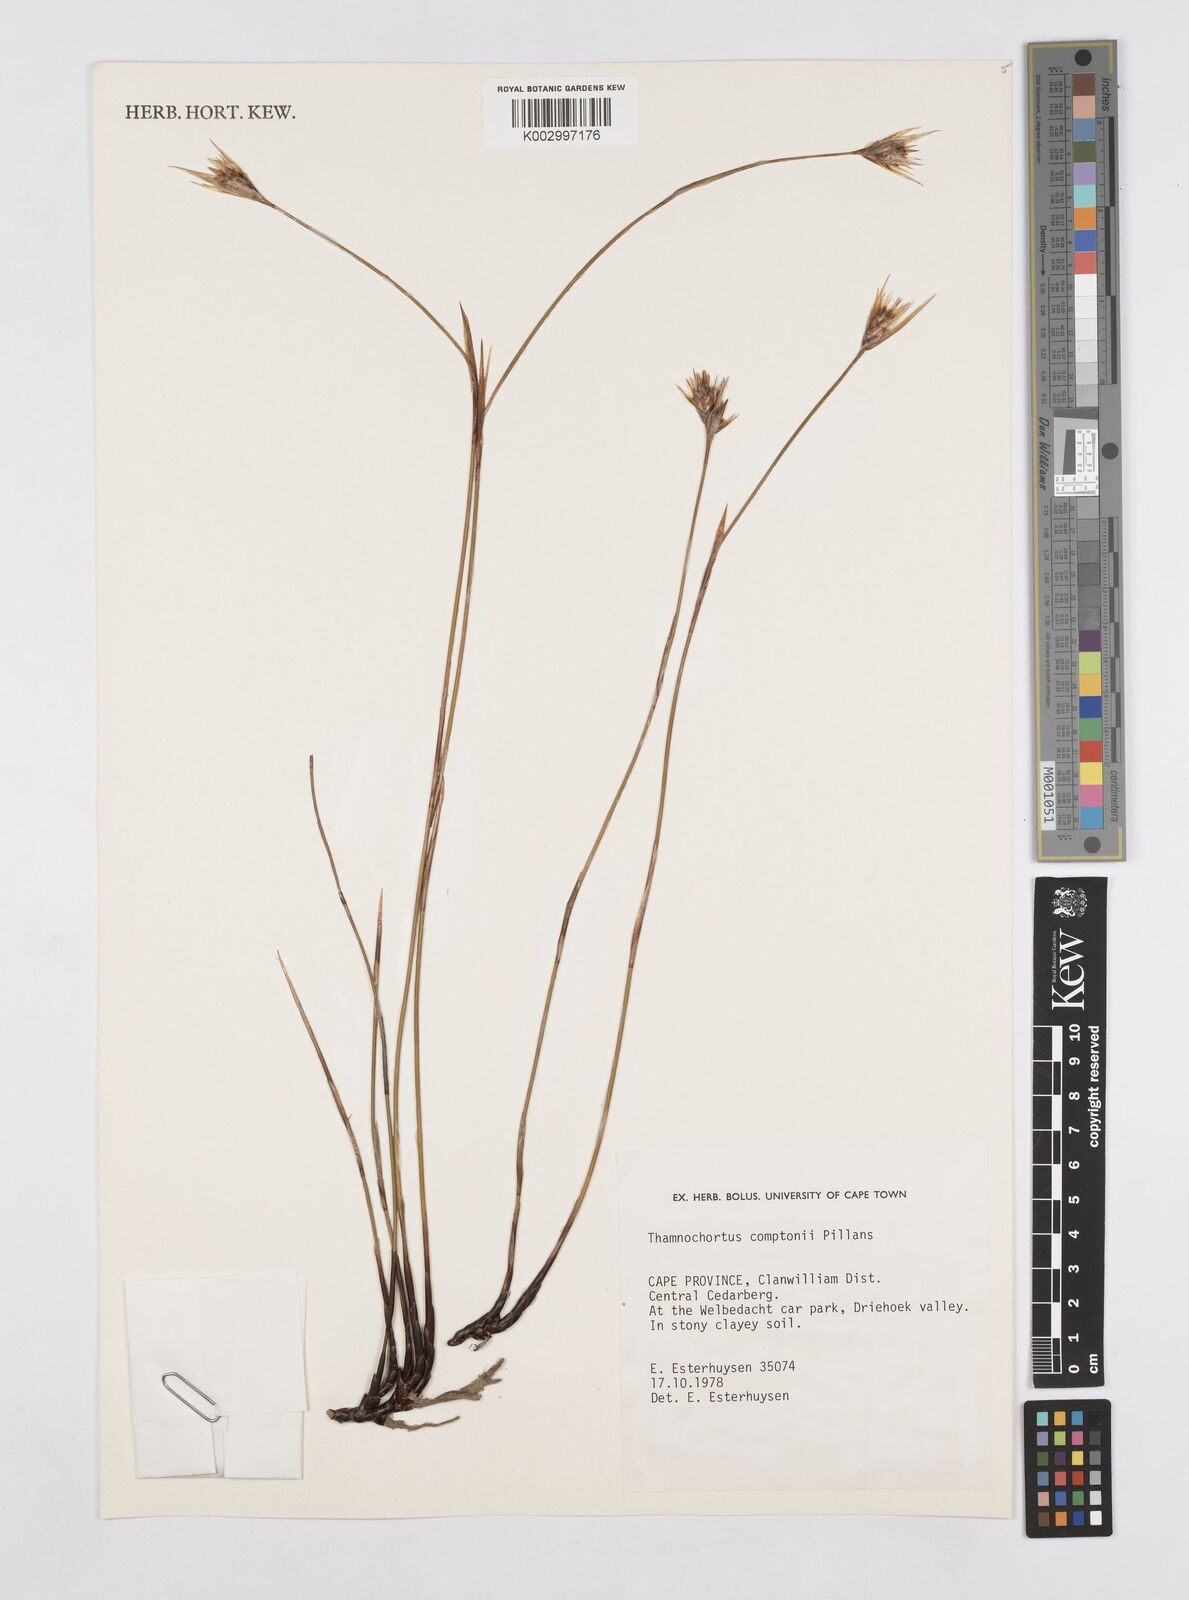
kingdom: Plantae
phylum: Tracheophyta
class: Liliopsida
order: Poales
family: Restionaceae
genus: Thamnochortus
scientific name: Thamnochortus platypteris
